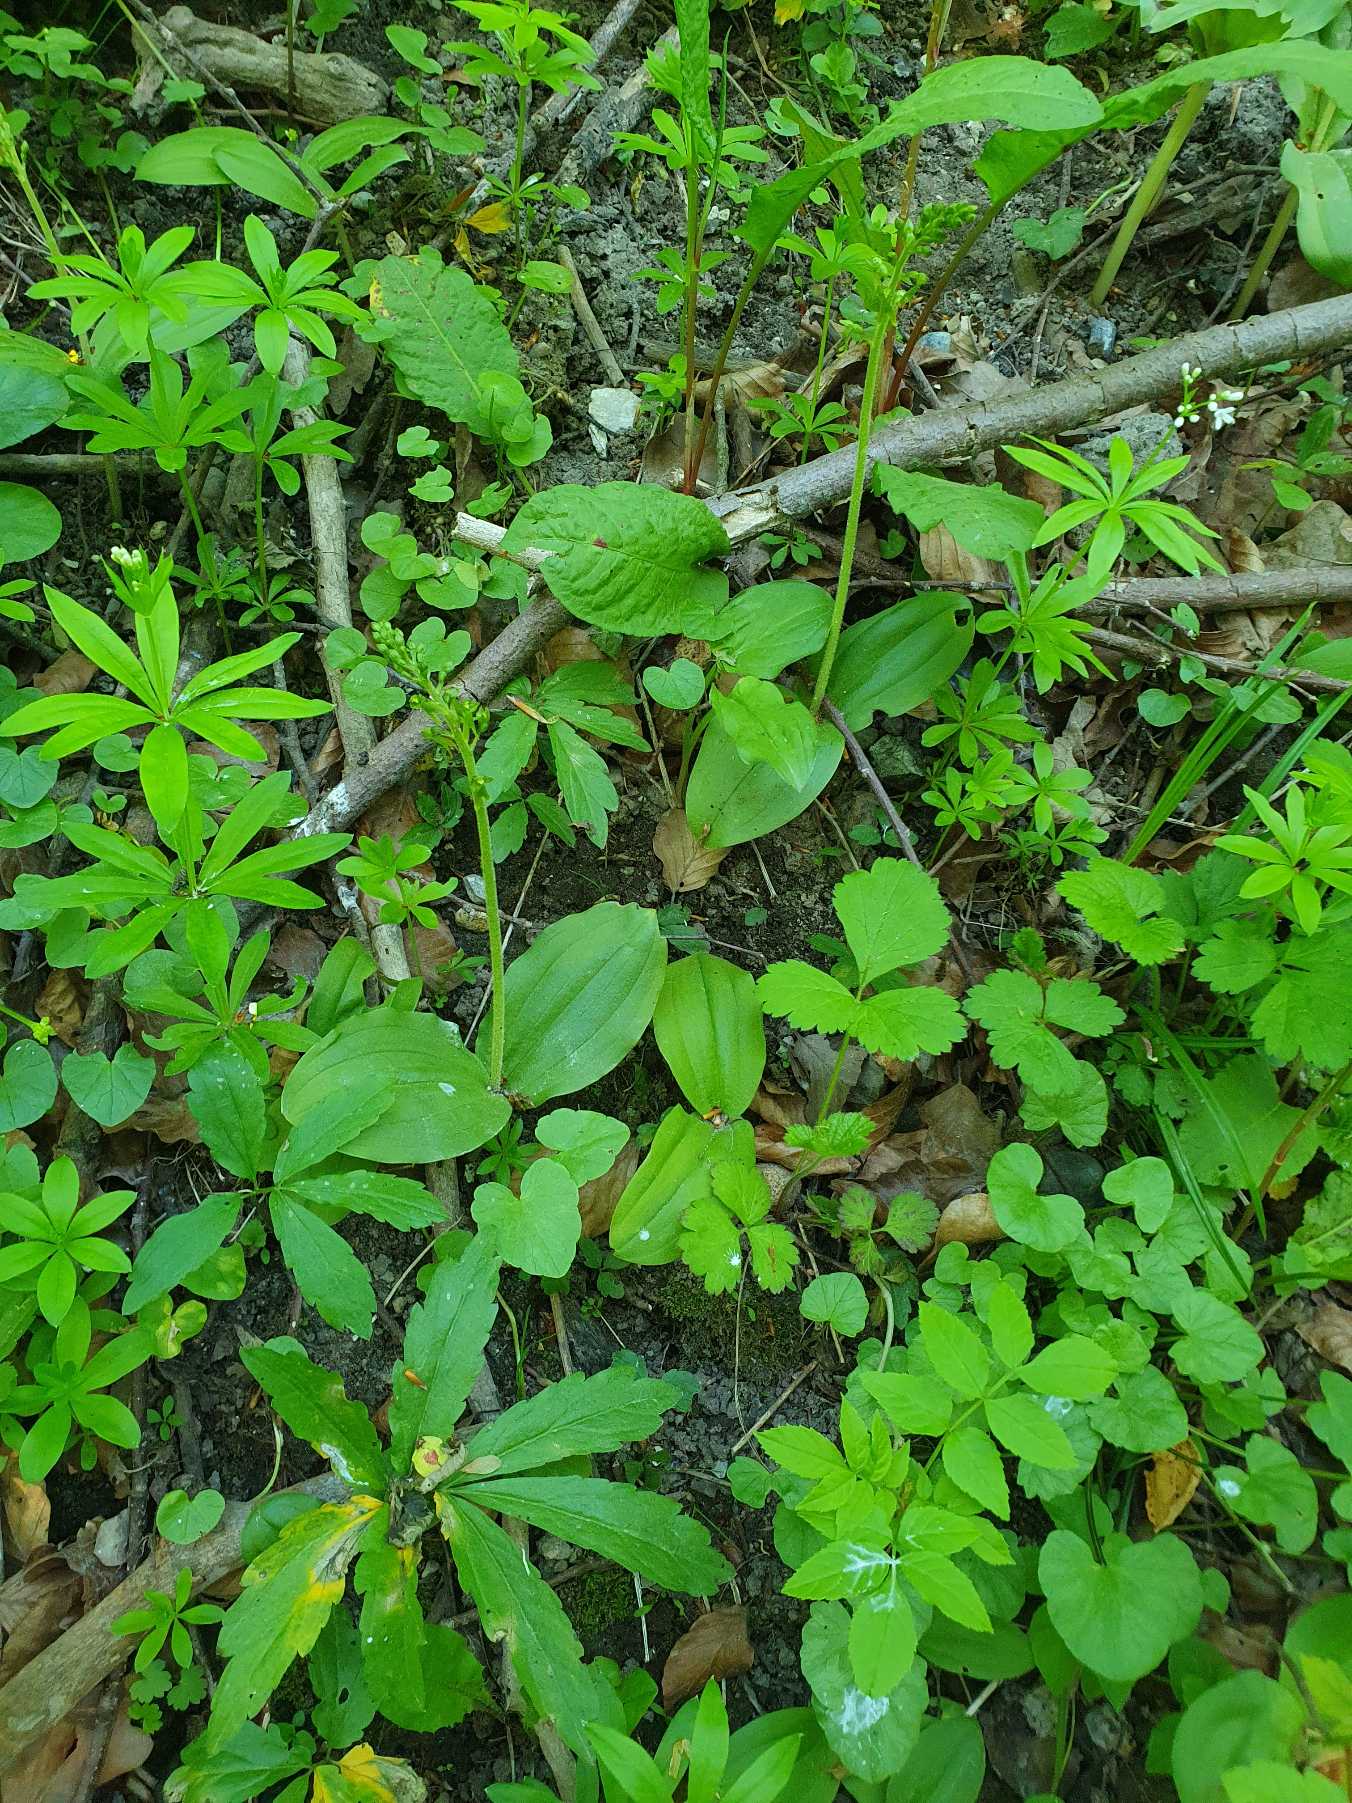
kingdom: Plantae
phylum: Tracheophyta
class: Liliopsida
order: Asparagales
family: Orchidaceae
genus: Neottia
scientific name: Neottia ovata
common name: Ægbladet fliglæbe
